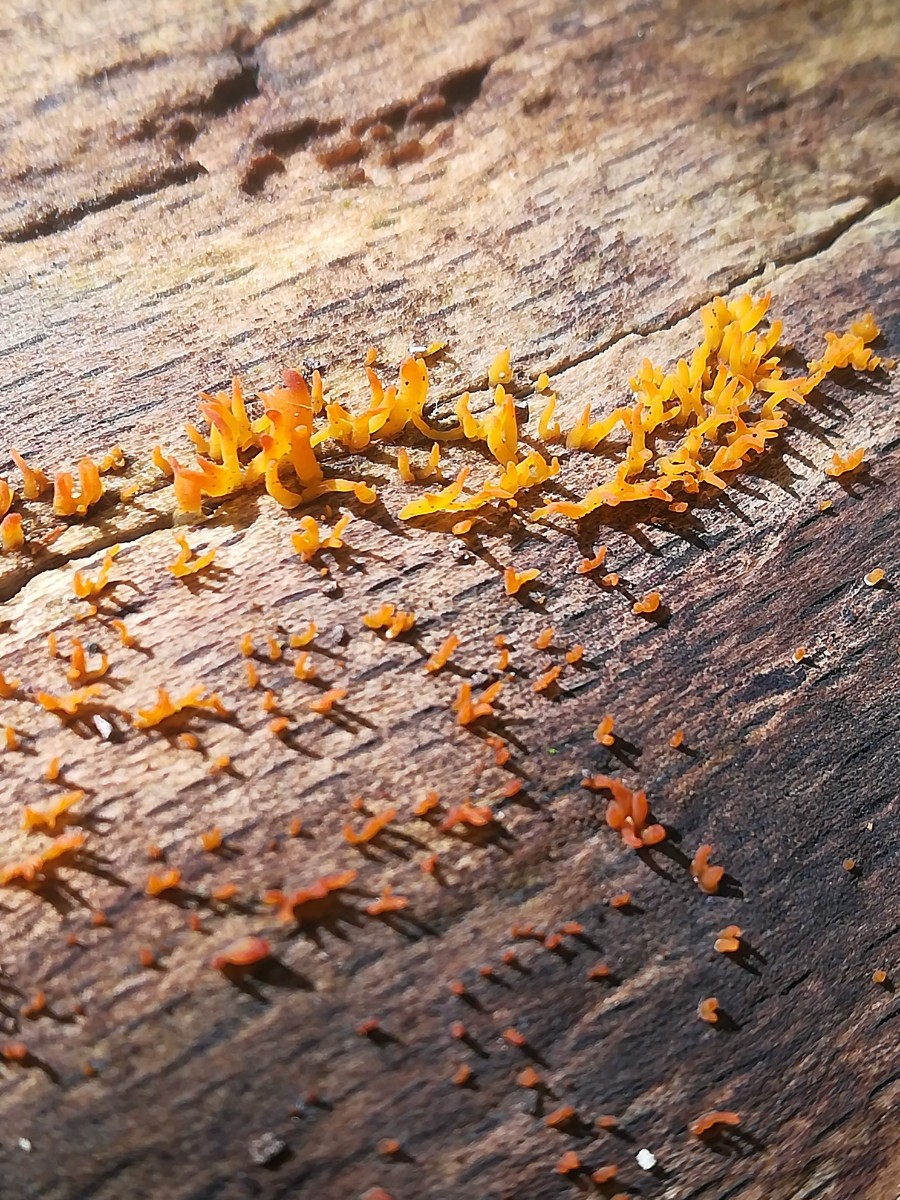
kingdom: Fungi
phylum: Basidiomycota
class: Dacrymycetes
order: Dacrymycetales
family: Dacrymycetaceae
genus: Calocera
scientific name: Calocera cornea
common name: liden guldgaffel
